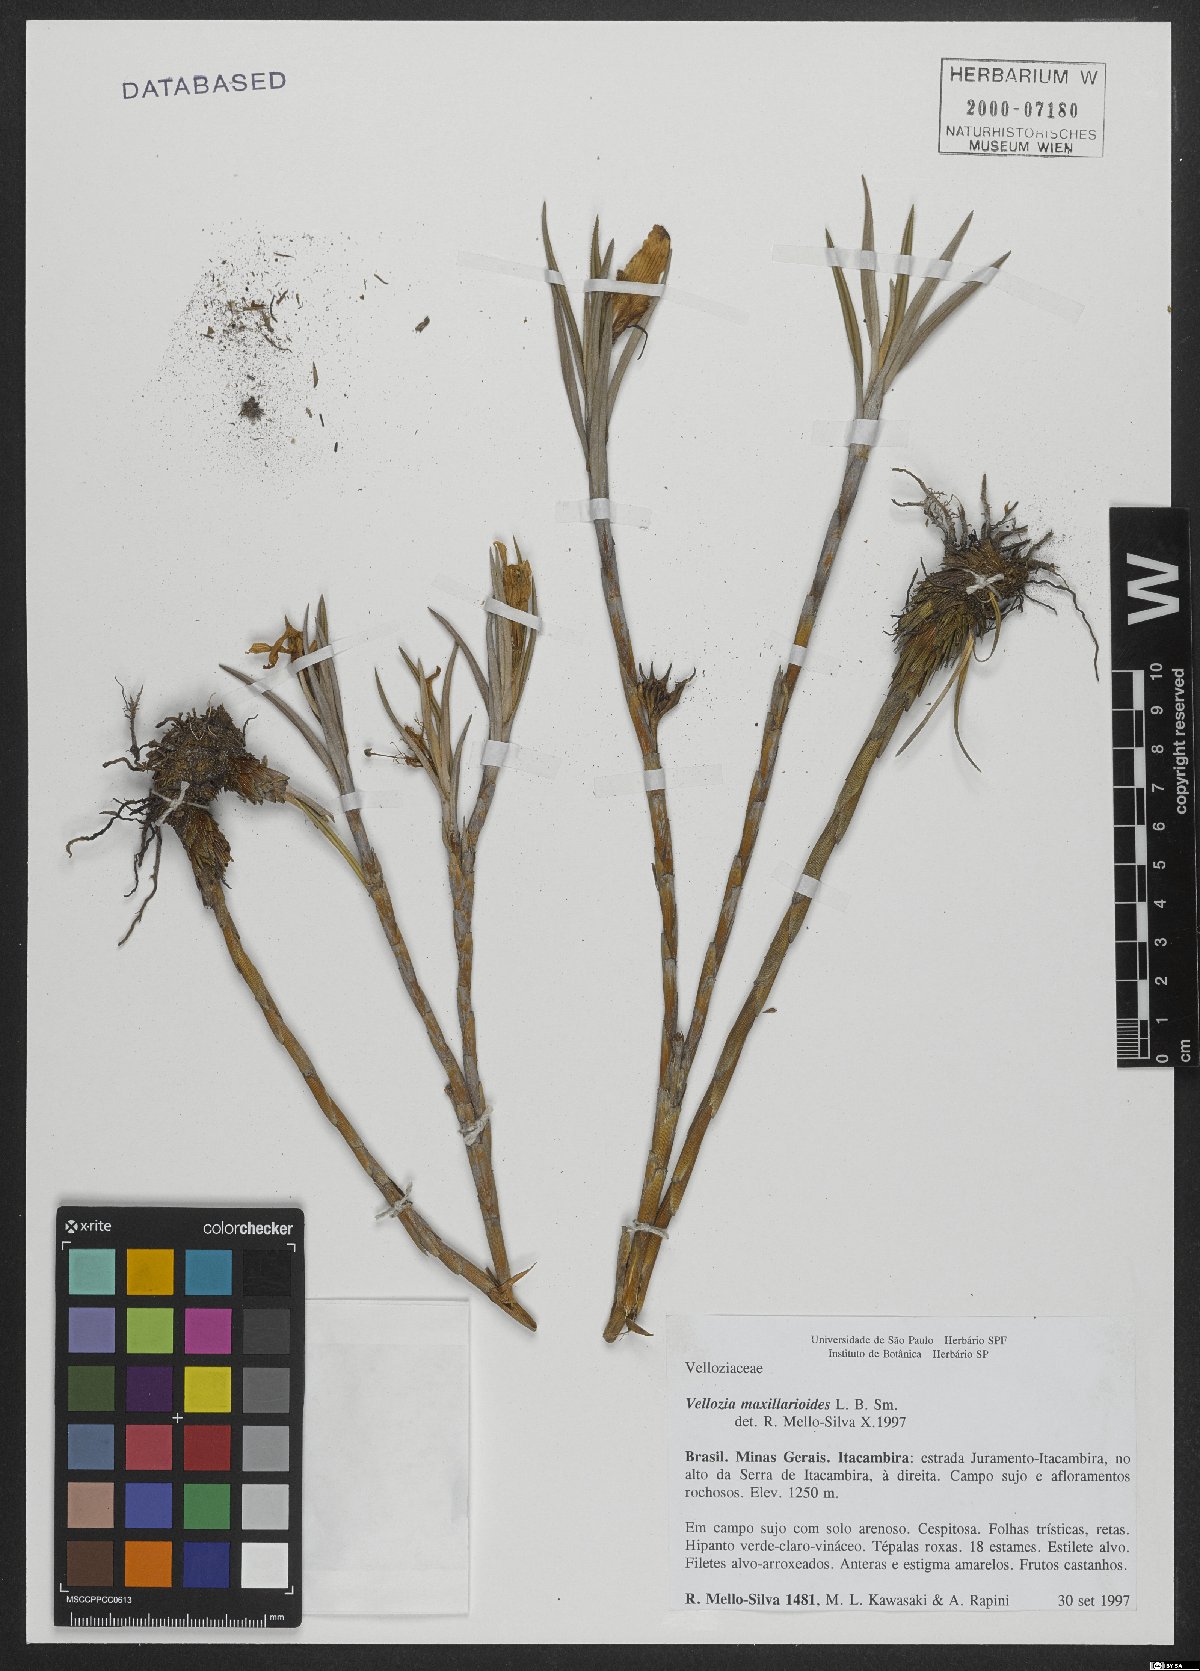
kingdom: Plantae
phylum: Tracheophyta
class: Liliopsida
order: Pandanales
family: Velloziaceae
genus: Vellozia
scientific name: Vellozia maxillarioides
